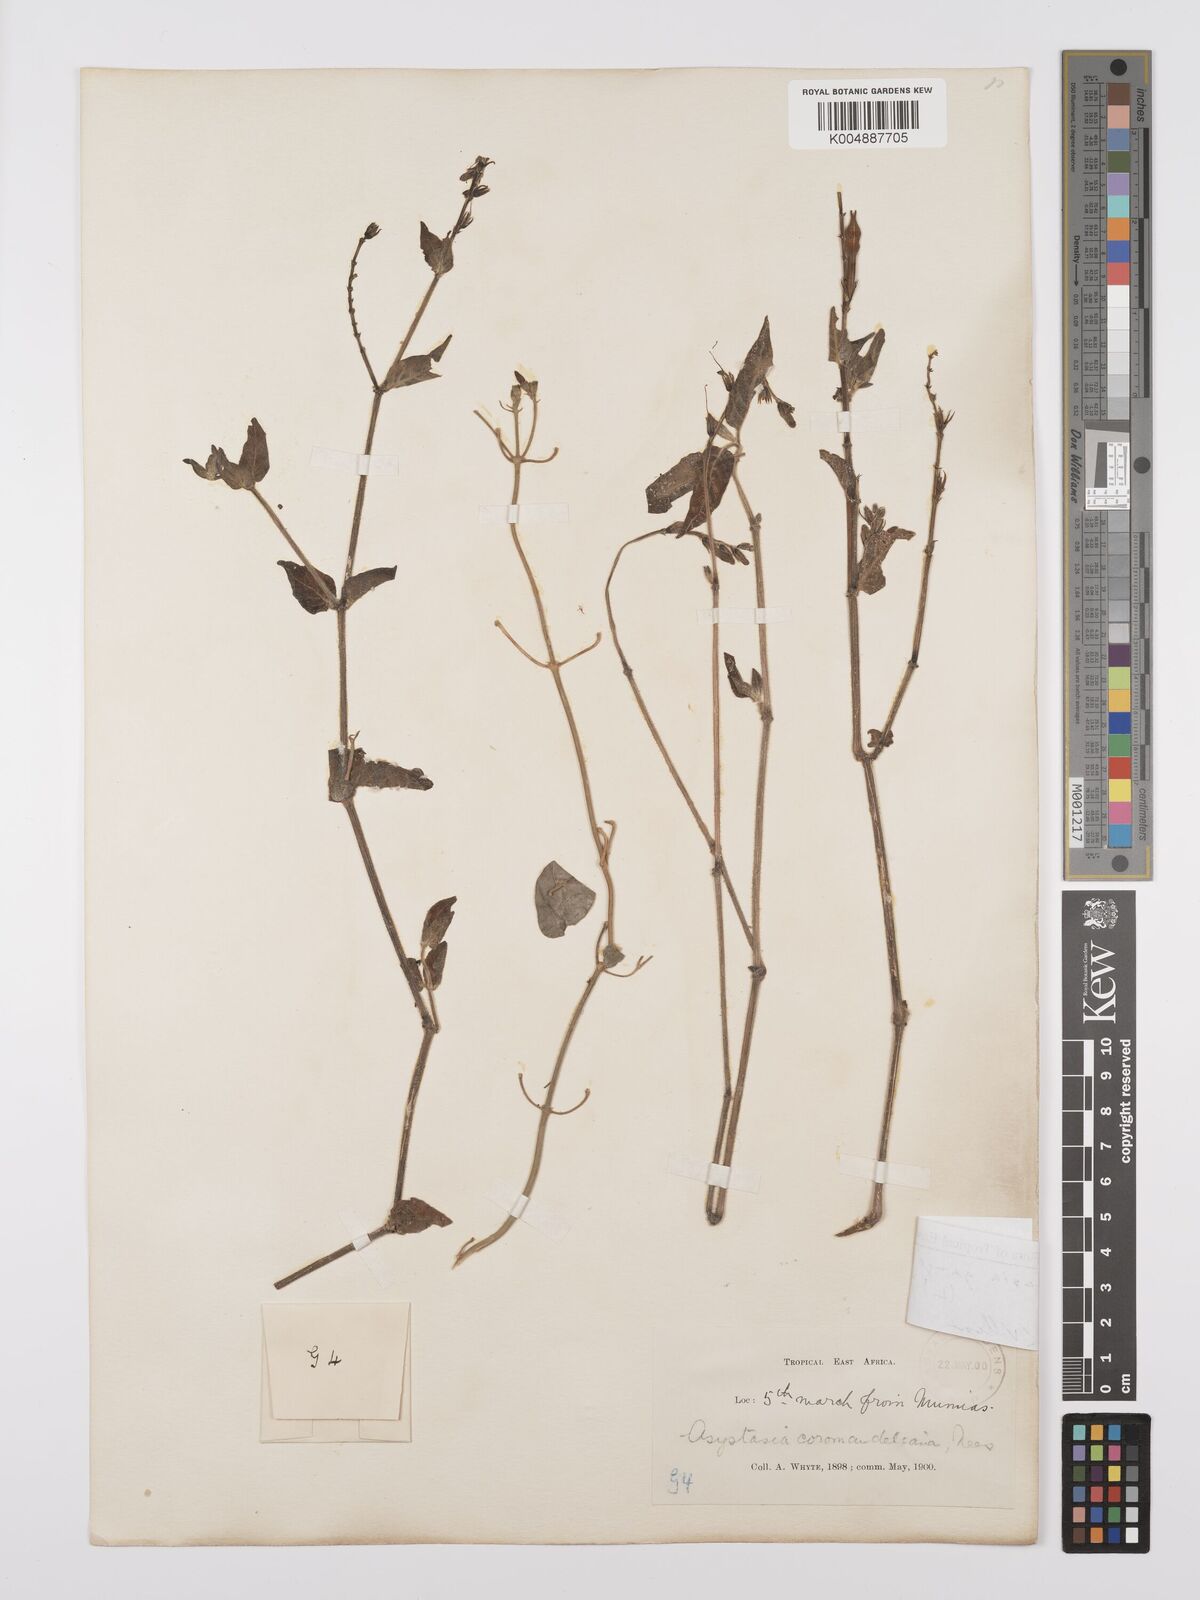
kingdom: Plantae
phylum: Tracheophyta
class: Magnoliopsida
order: Lamiales
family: Acanthaceae
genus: Asystasia
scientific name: Asystasia gangetica
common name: Chinese violet
